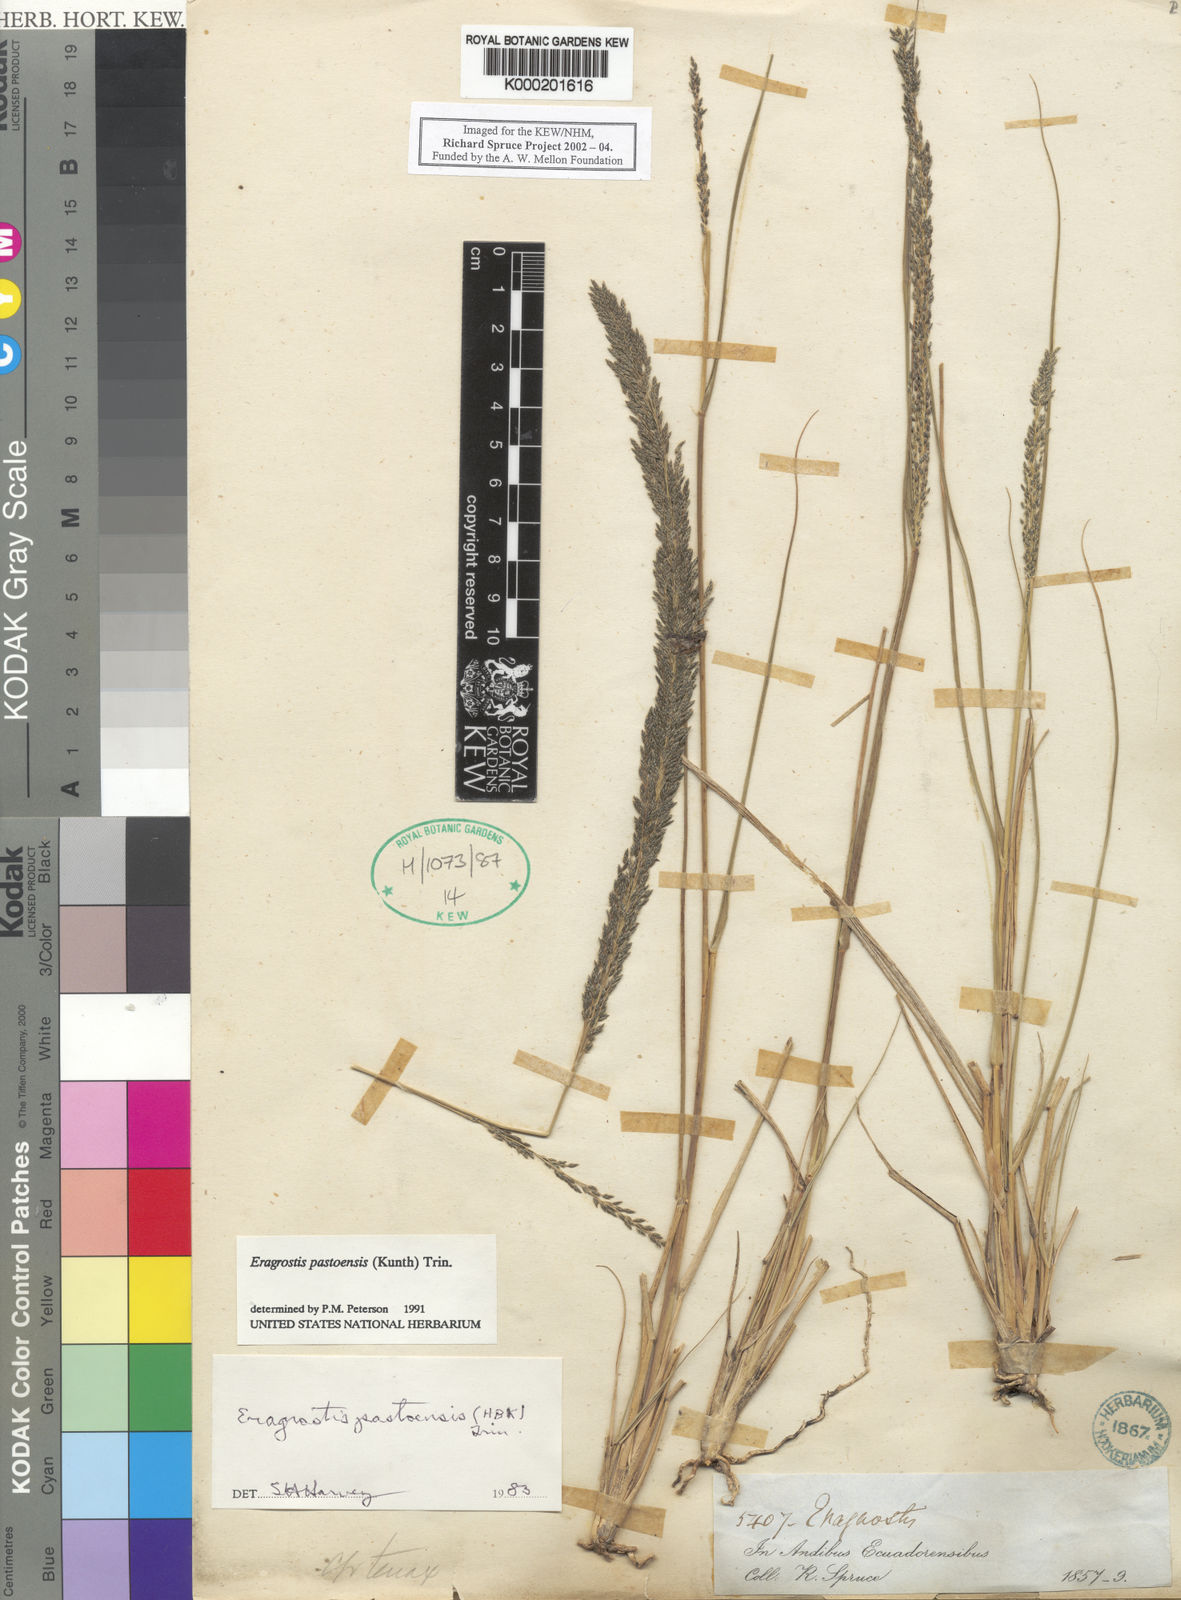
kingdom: Plantae
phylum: Tracheophyta
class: Liliopsida
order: Poales
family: Poaceae
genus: Eragrostis
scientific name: Eragrostis pastoensis
